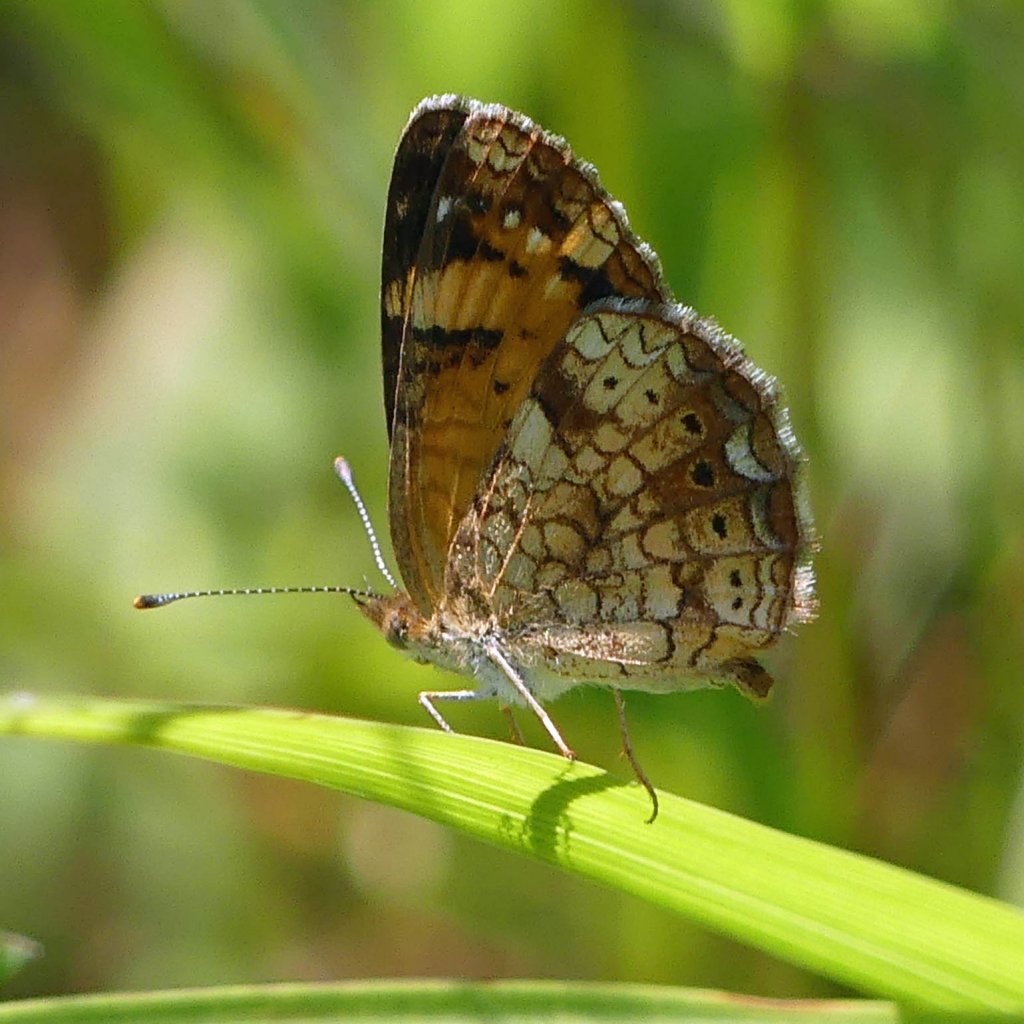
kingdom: Animalia
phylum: Arthropoda
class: Insecta
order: Lepidoptera
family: Nymphalidae
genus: Phyciodes
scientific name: Phyciodes tharos
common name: Northern Crescent
